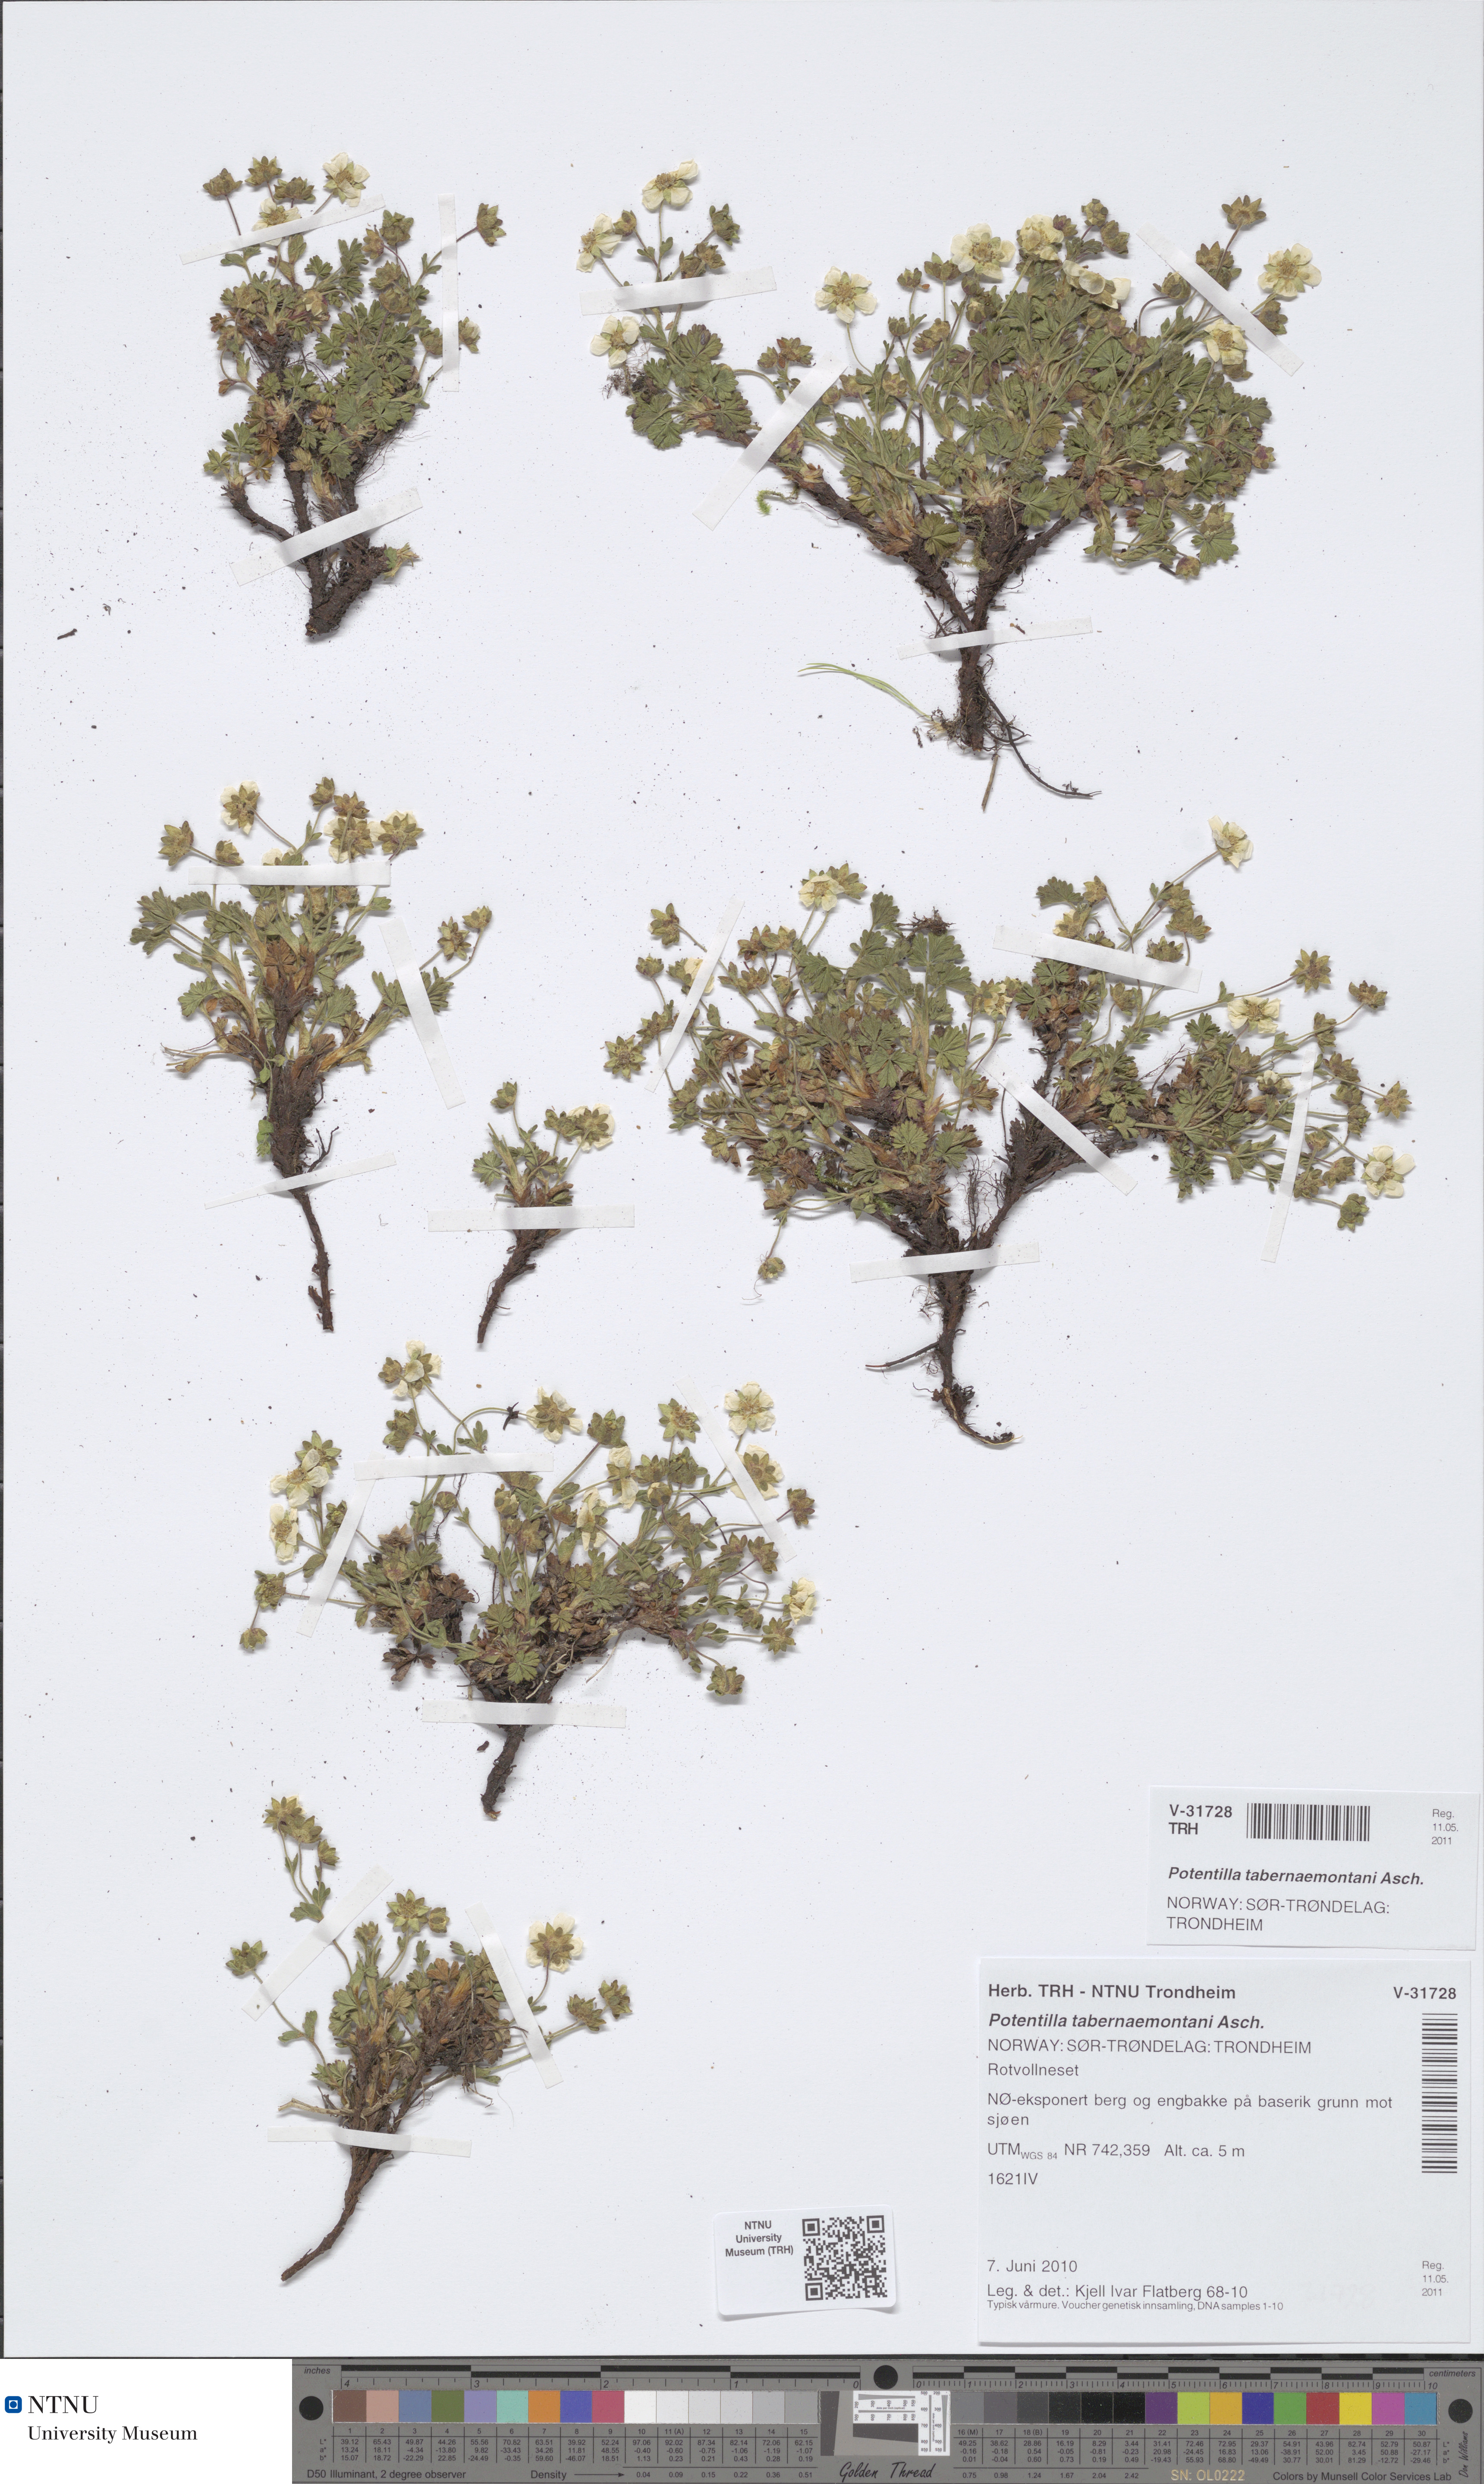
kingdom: Plantae
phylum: Tracheophyta
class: Magnoliopsida
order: Rosales
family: Rosaceae
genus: Potentilla
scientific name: Potentilla verna
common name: Spring cinquefoil
